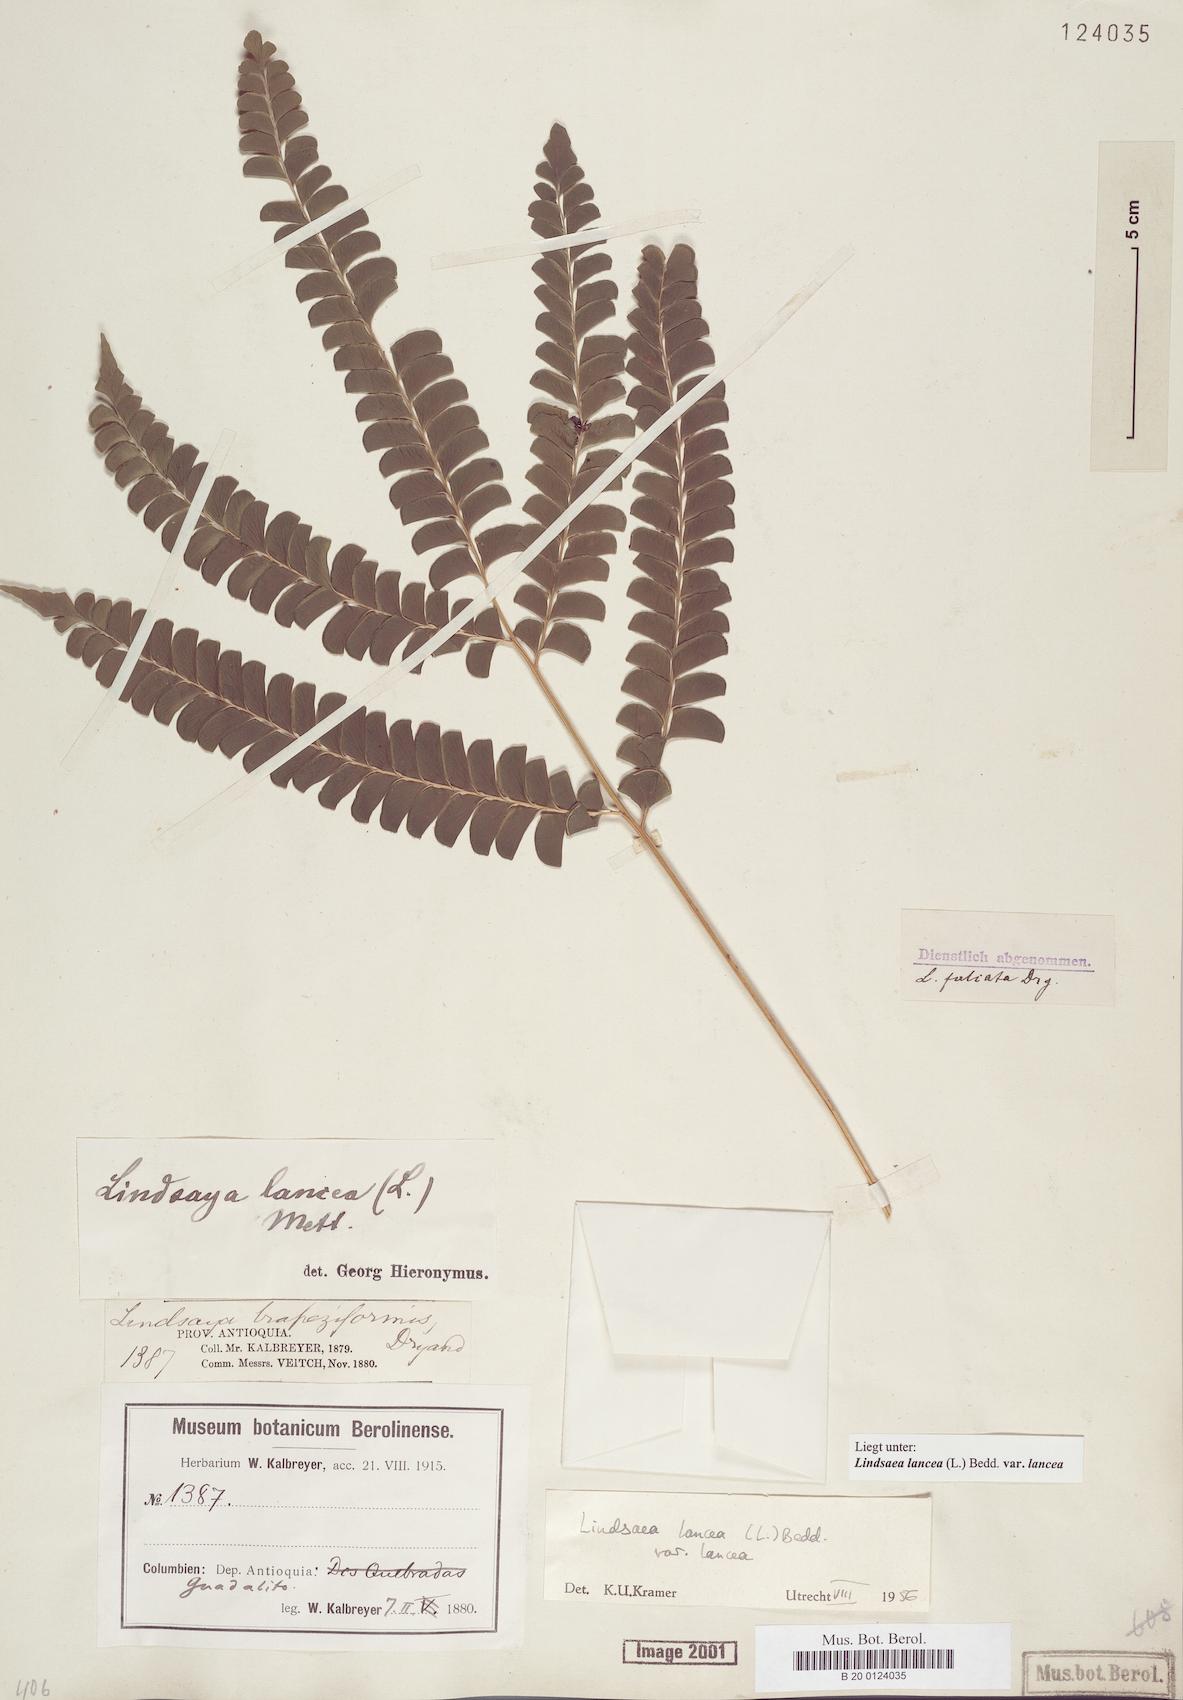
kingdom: Plantae
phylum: Tracheophyta
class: Polypodiopsida
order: Polypodiales
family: Lindsaeaceae
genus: Lindsaea
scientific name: Lindsaea lancea
